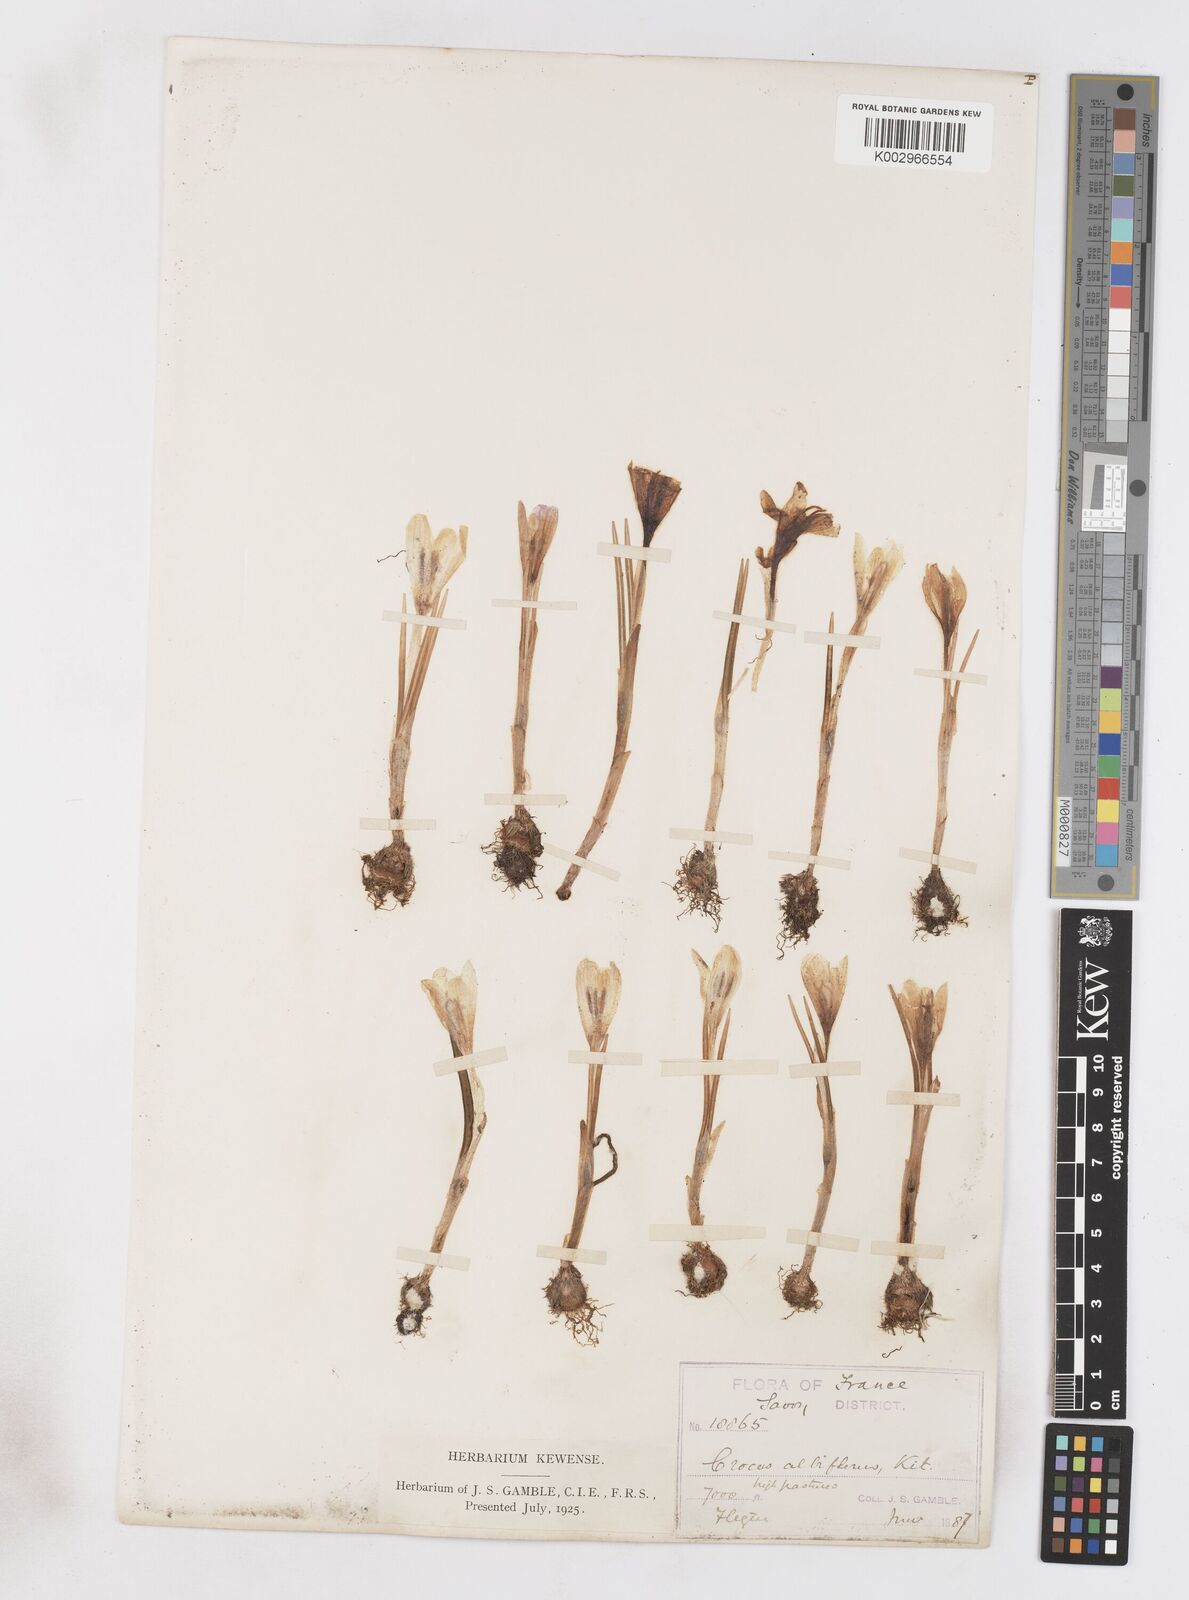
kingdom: Plantae
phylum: Tracheophyta
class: Liliopsida
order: Asparagales
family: Iridaceae
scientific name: Iridaceae
